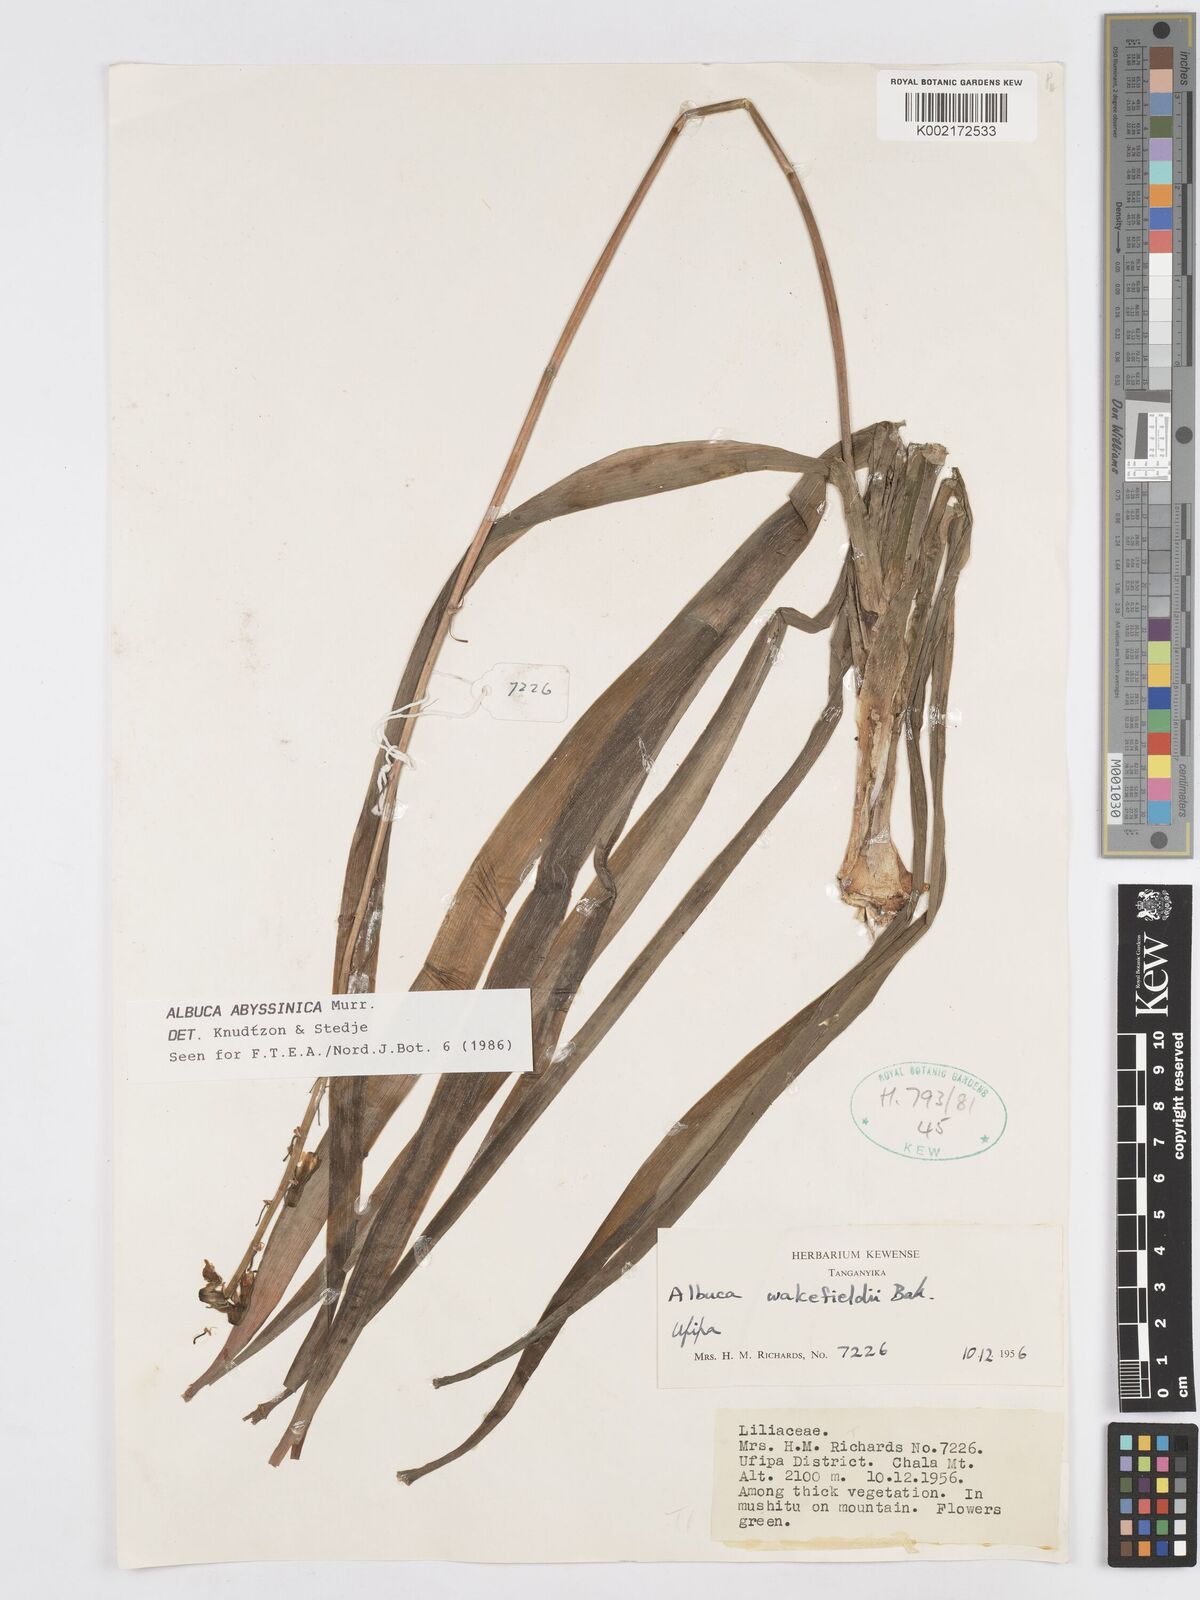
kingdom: Plantae
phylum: Tracheophyta
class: Liliopsida
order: Asparagales
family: Asparagaceae
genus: Albuca
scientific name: Albuca abyssinica
